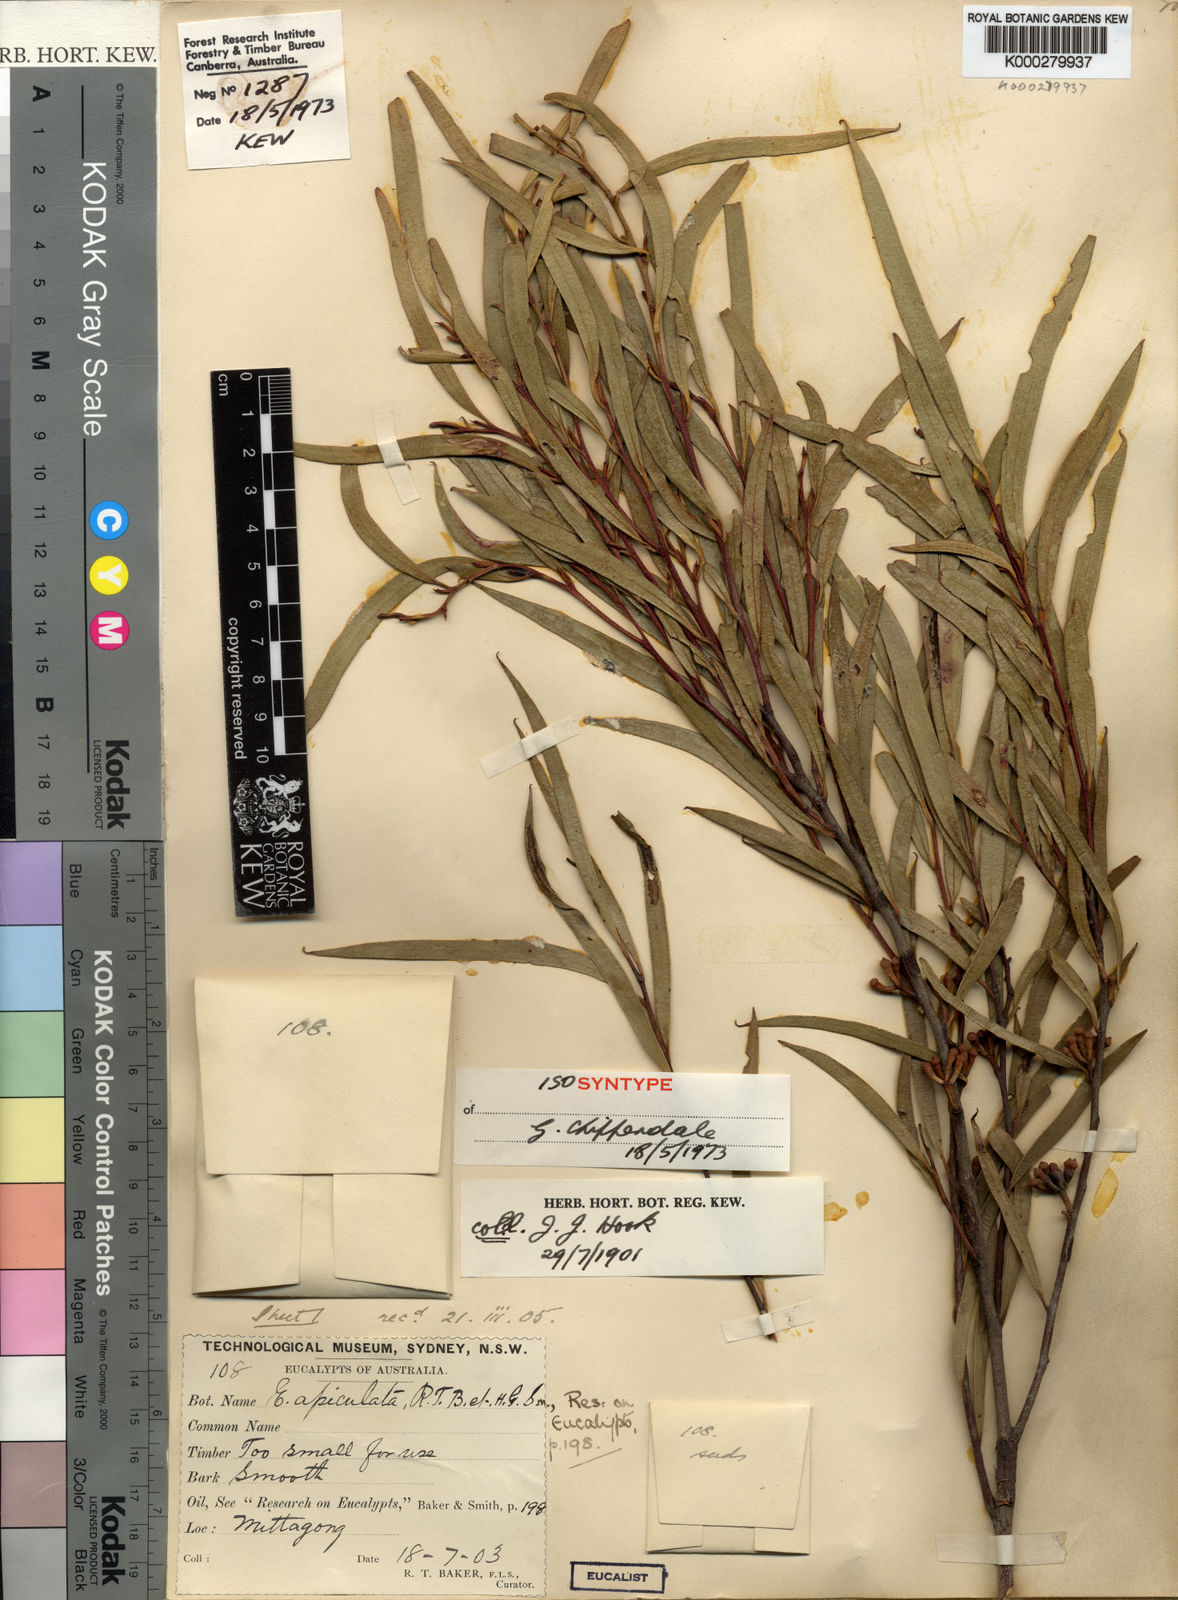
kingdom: Plantae
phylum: Tracheophyta
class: Magnoliopsida
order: Myrtales
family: Myrtaceae
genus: Eucalyptus
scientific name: Eucalyptus apiculata
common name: Narrow-leaf mallee-ash
